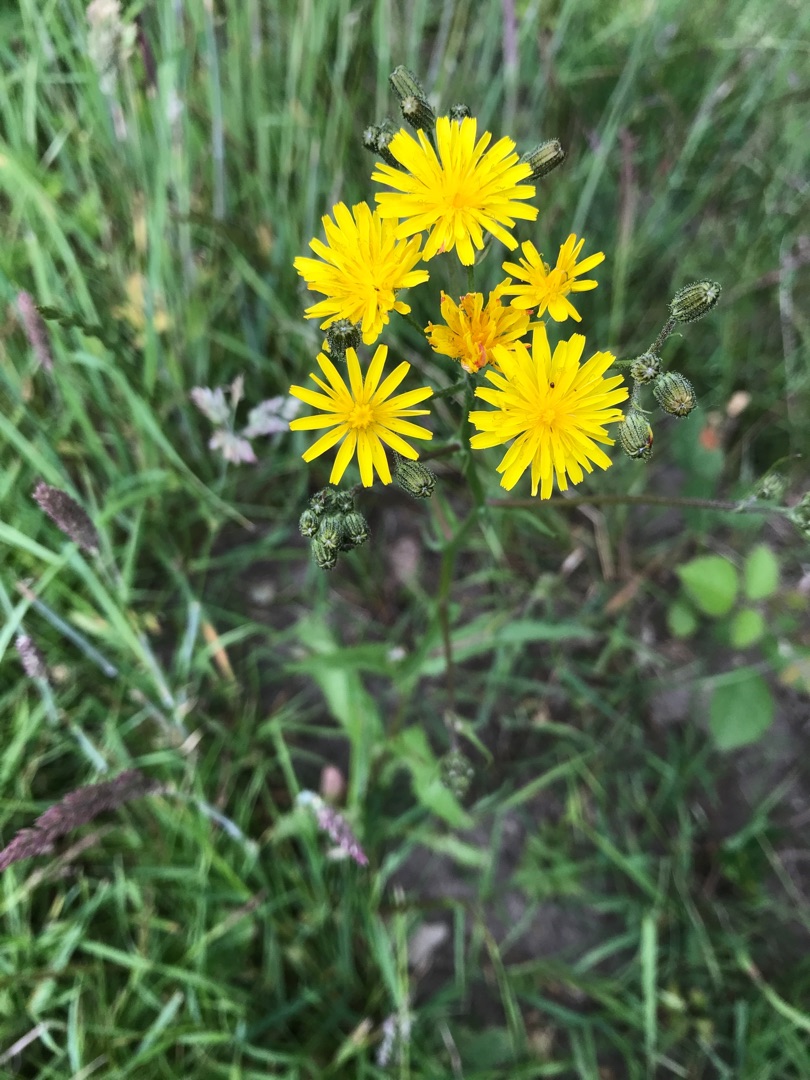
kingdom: Plantae
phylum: Tracheophyta
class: Magnoliopsida
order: Asterales
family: Asteraceae
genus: Crepis
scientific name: Crepis capillaris
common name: Grøn høgeskæg
